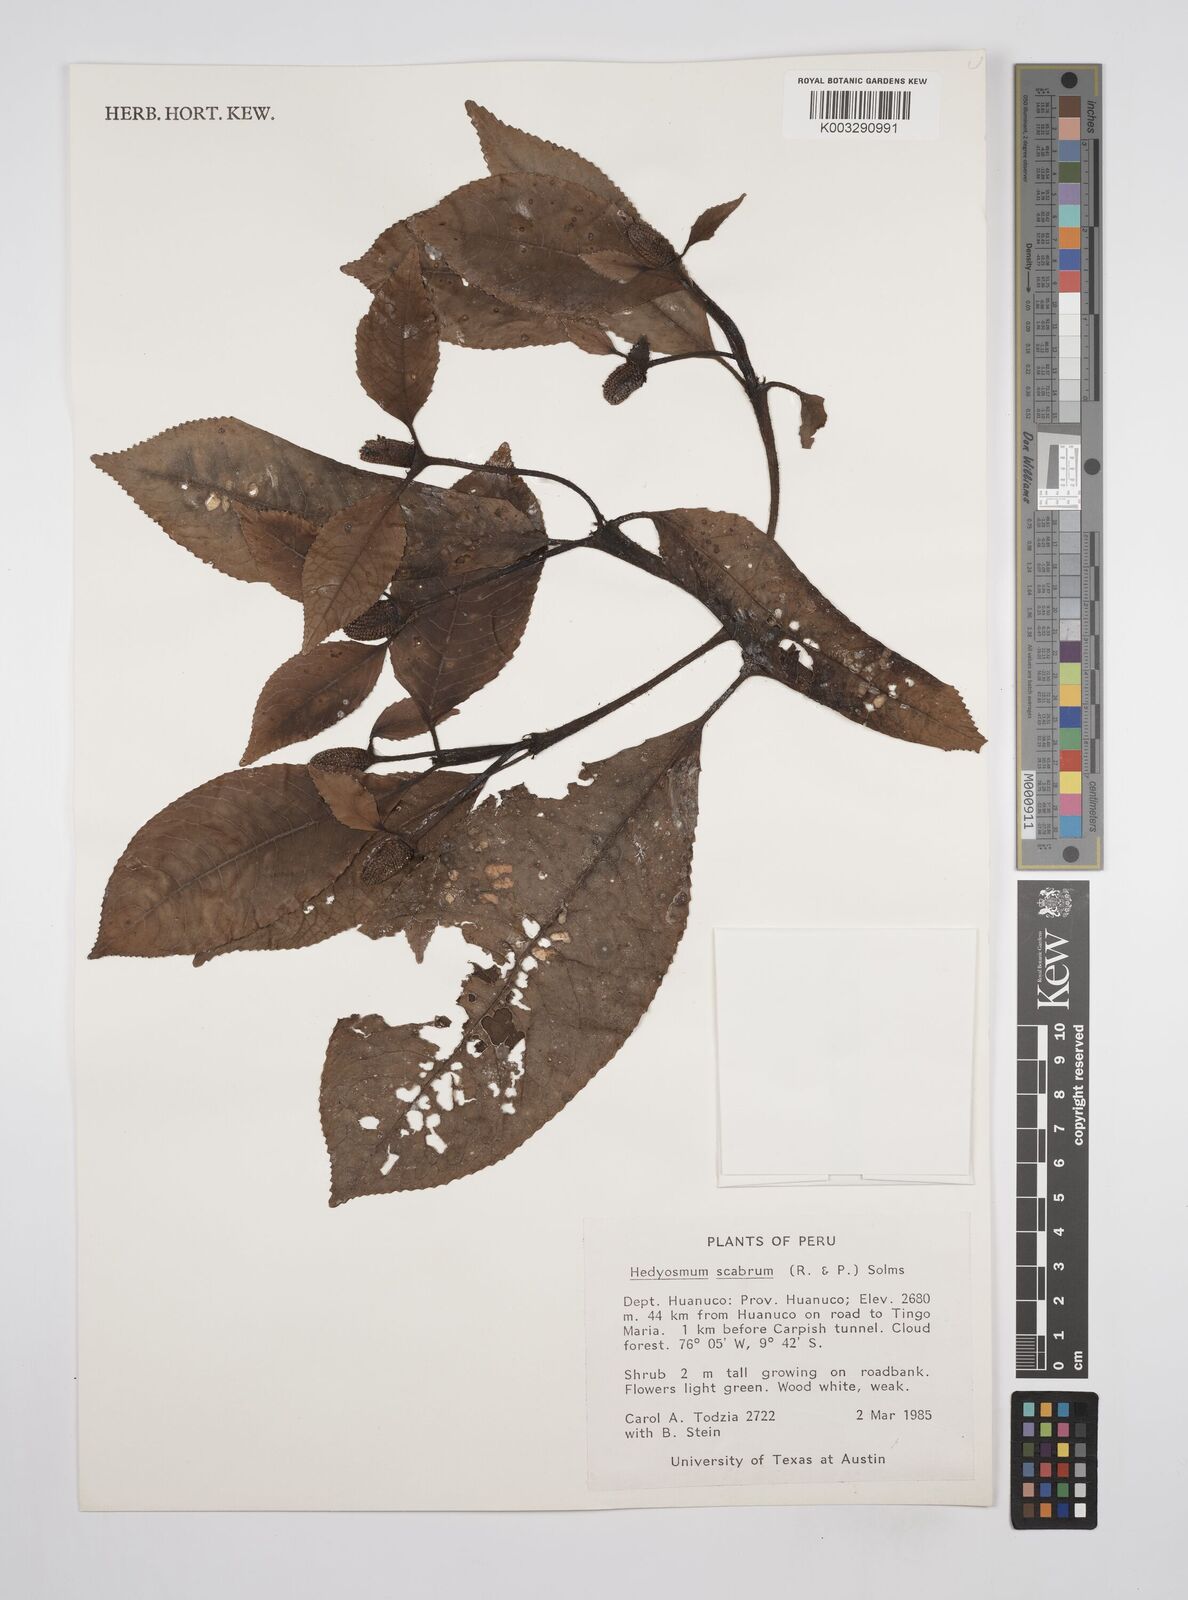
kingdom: Plantae
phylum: Tracheophyta
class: Magnoliopsida
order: Chloranthales
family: Chloranthaceae
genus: Hedyosmum
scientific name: Hedyosmum scabrum
